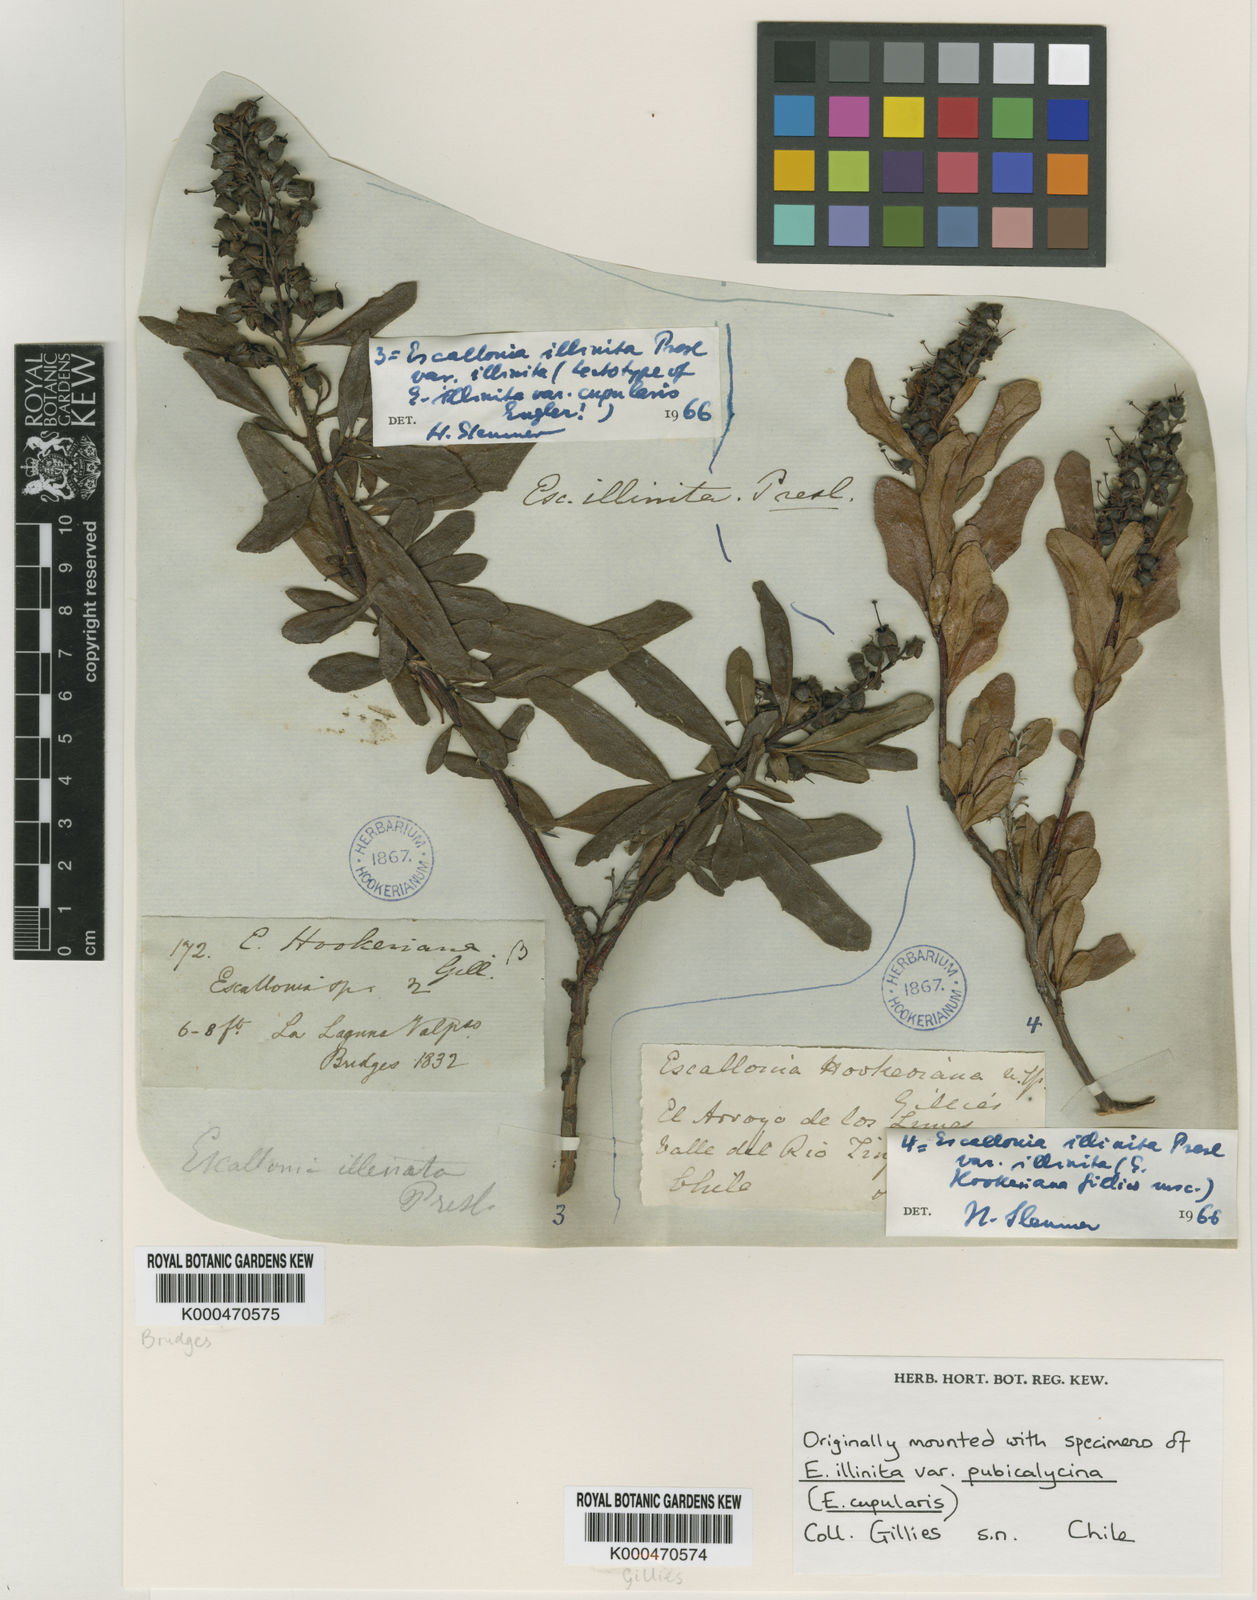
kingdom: Plantae
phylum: Tracheophyta
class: Magnoliopsida
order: Escalloniales
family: Escalloniaceae
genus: Escallonia
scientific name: Escallonia illinita
